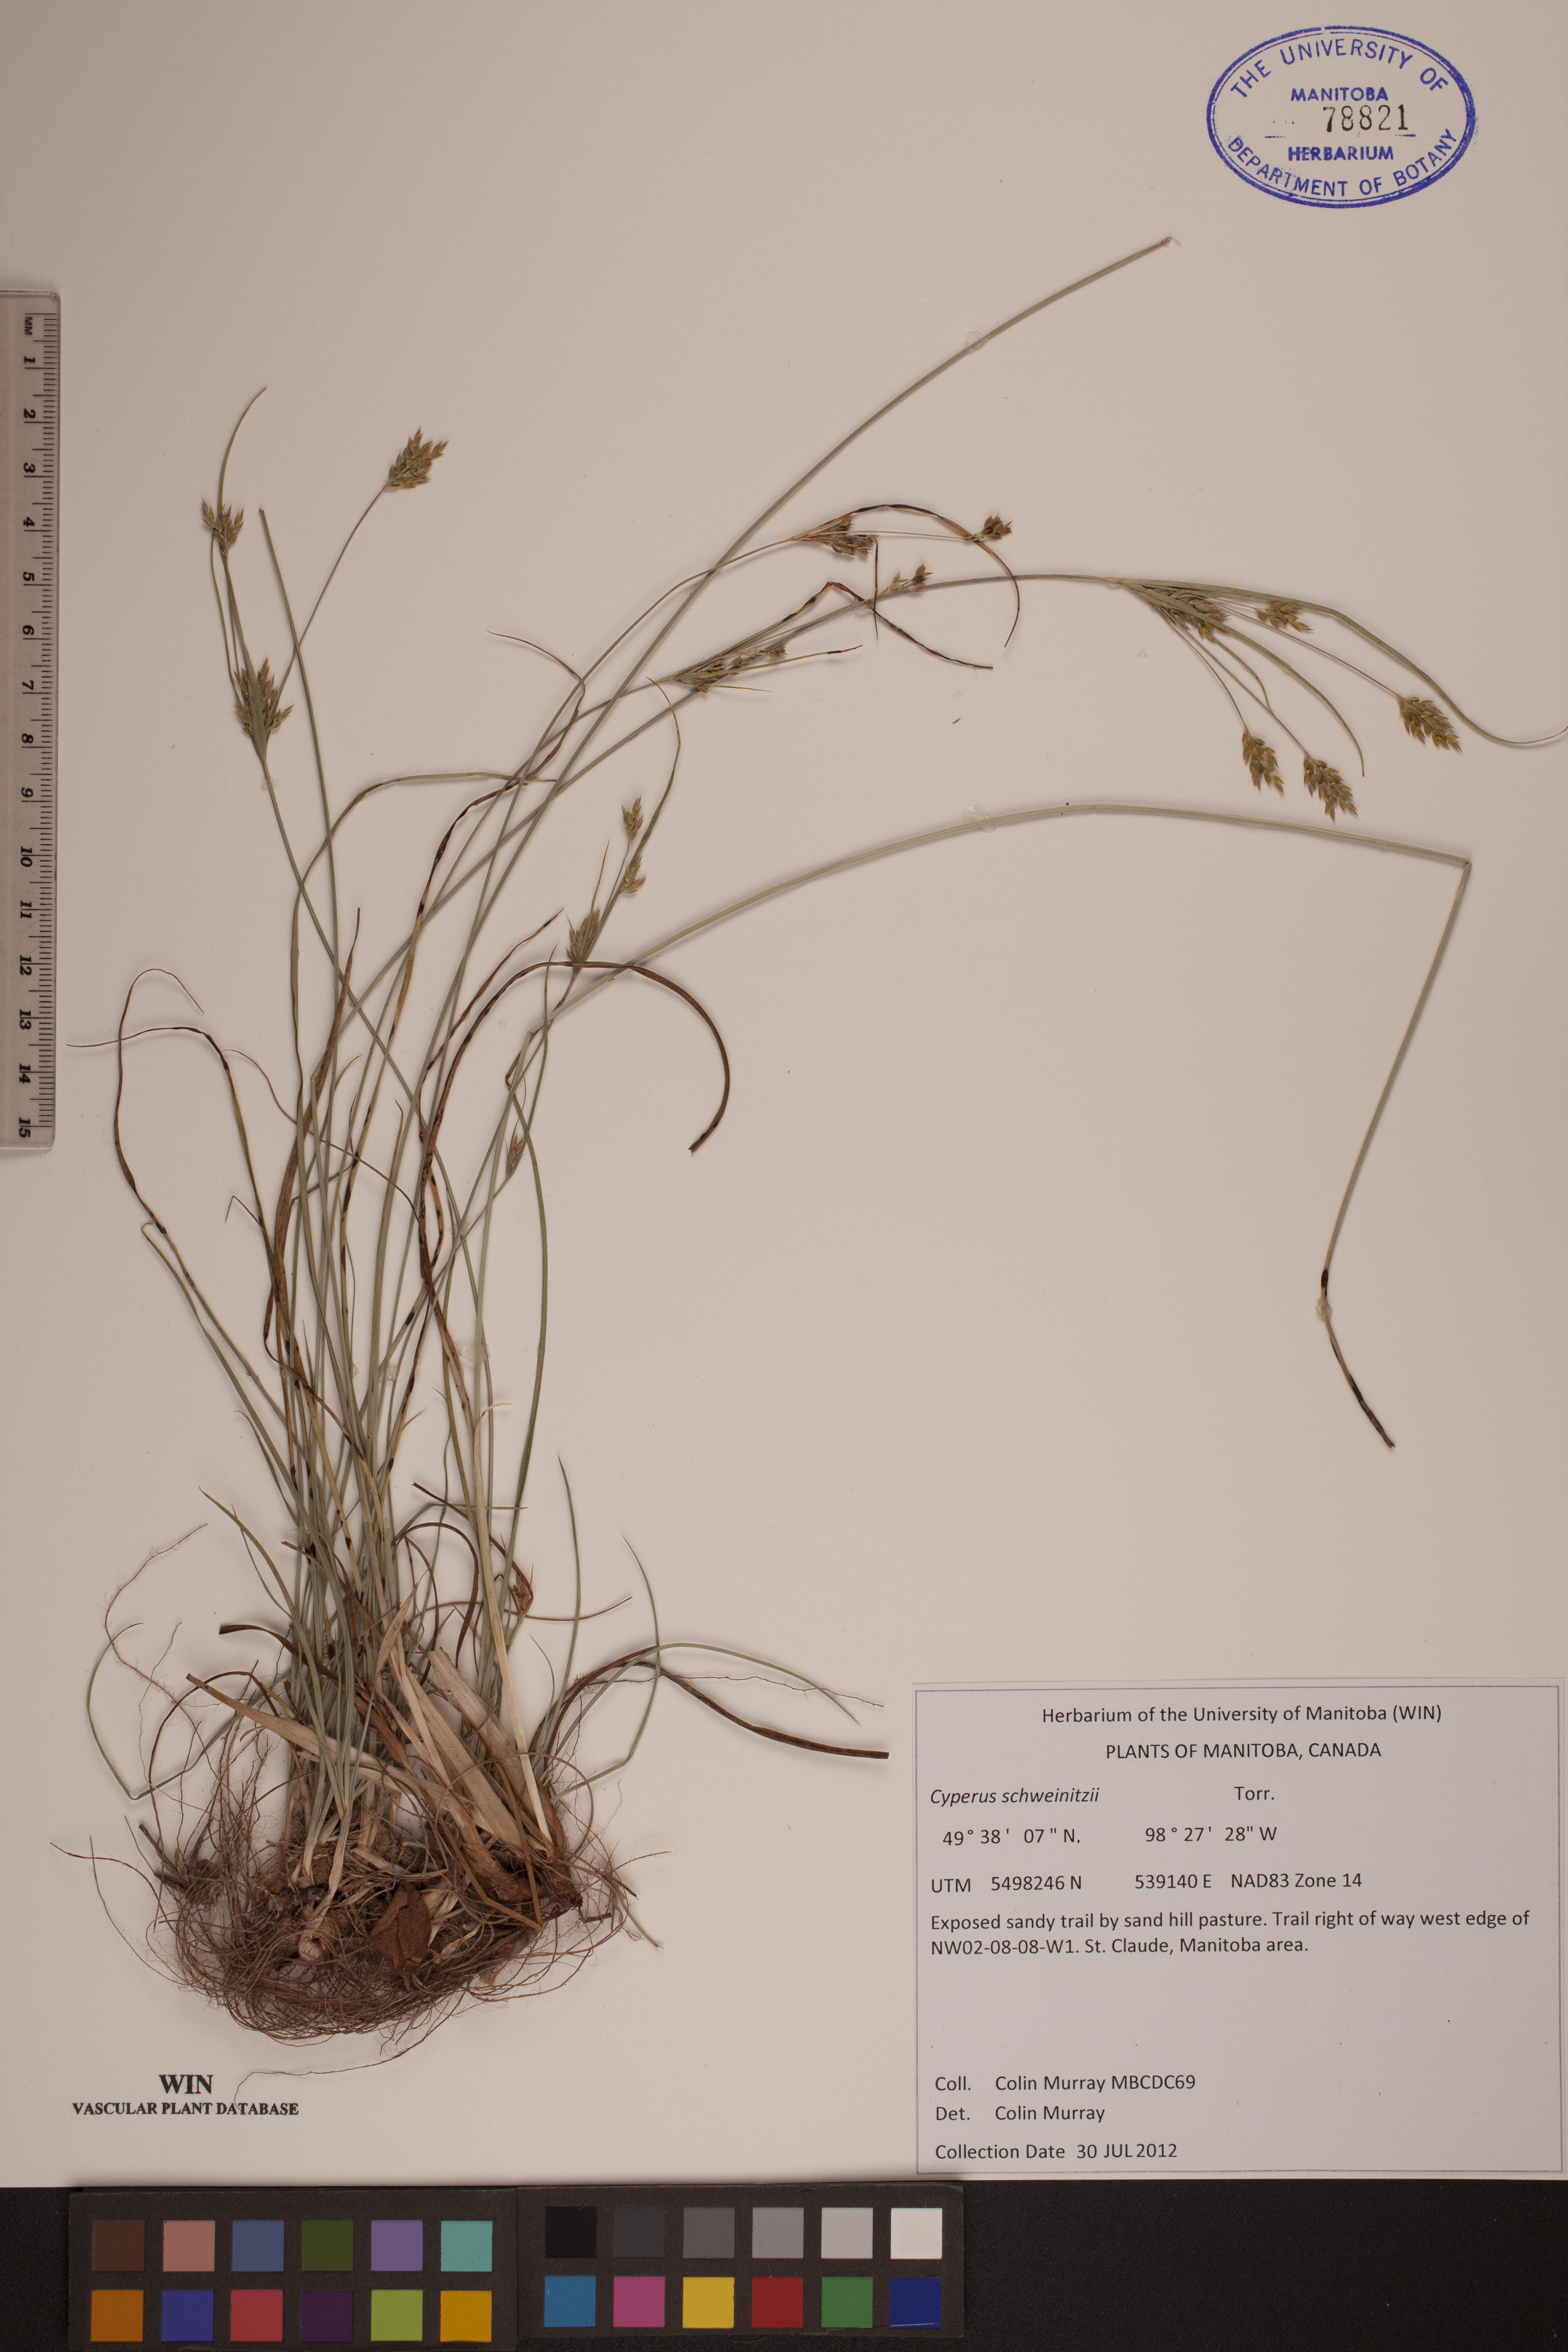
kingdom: Plantae
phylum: Tracheophyta
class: Liliopsida
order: Poales
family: Cyperaceae
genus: Cyperus
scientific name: Cyperus schweinitzii
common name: Schweinitz's cyperus
